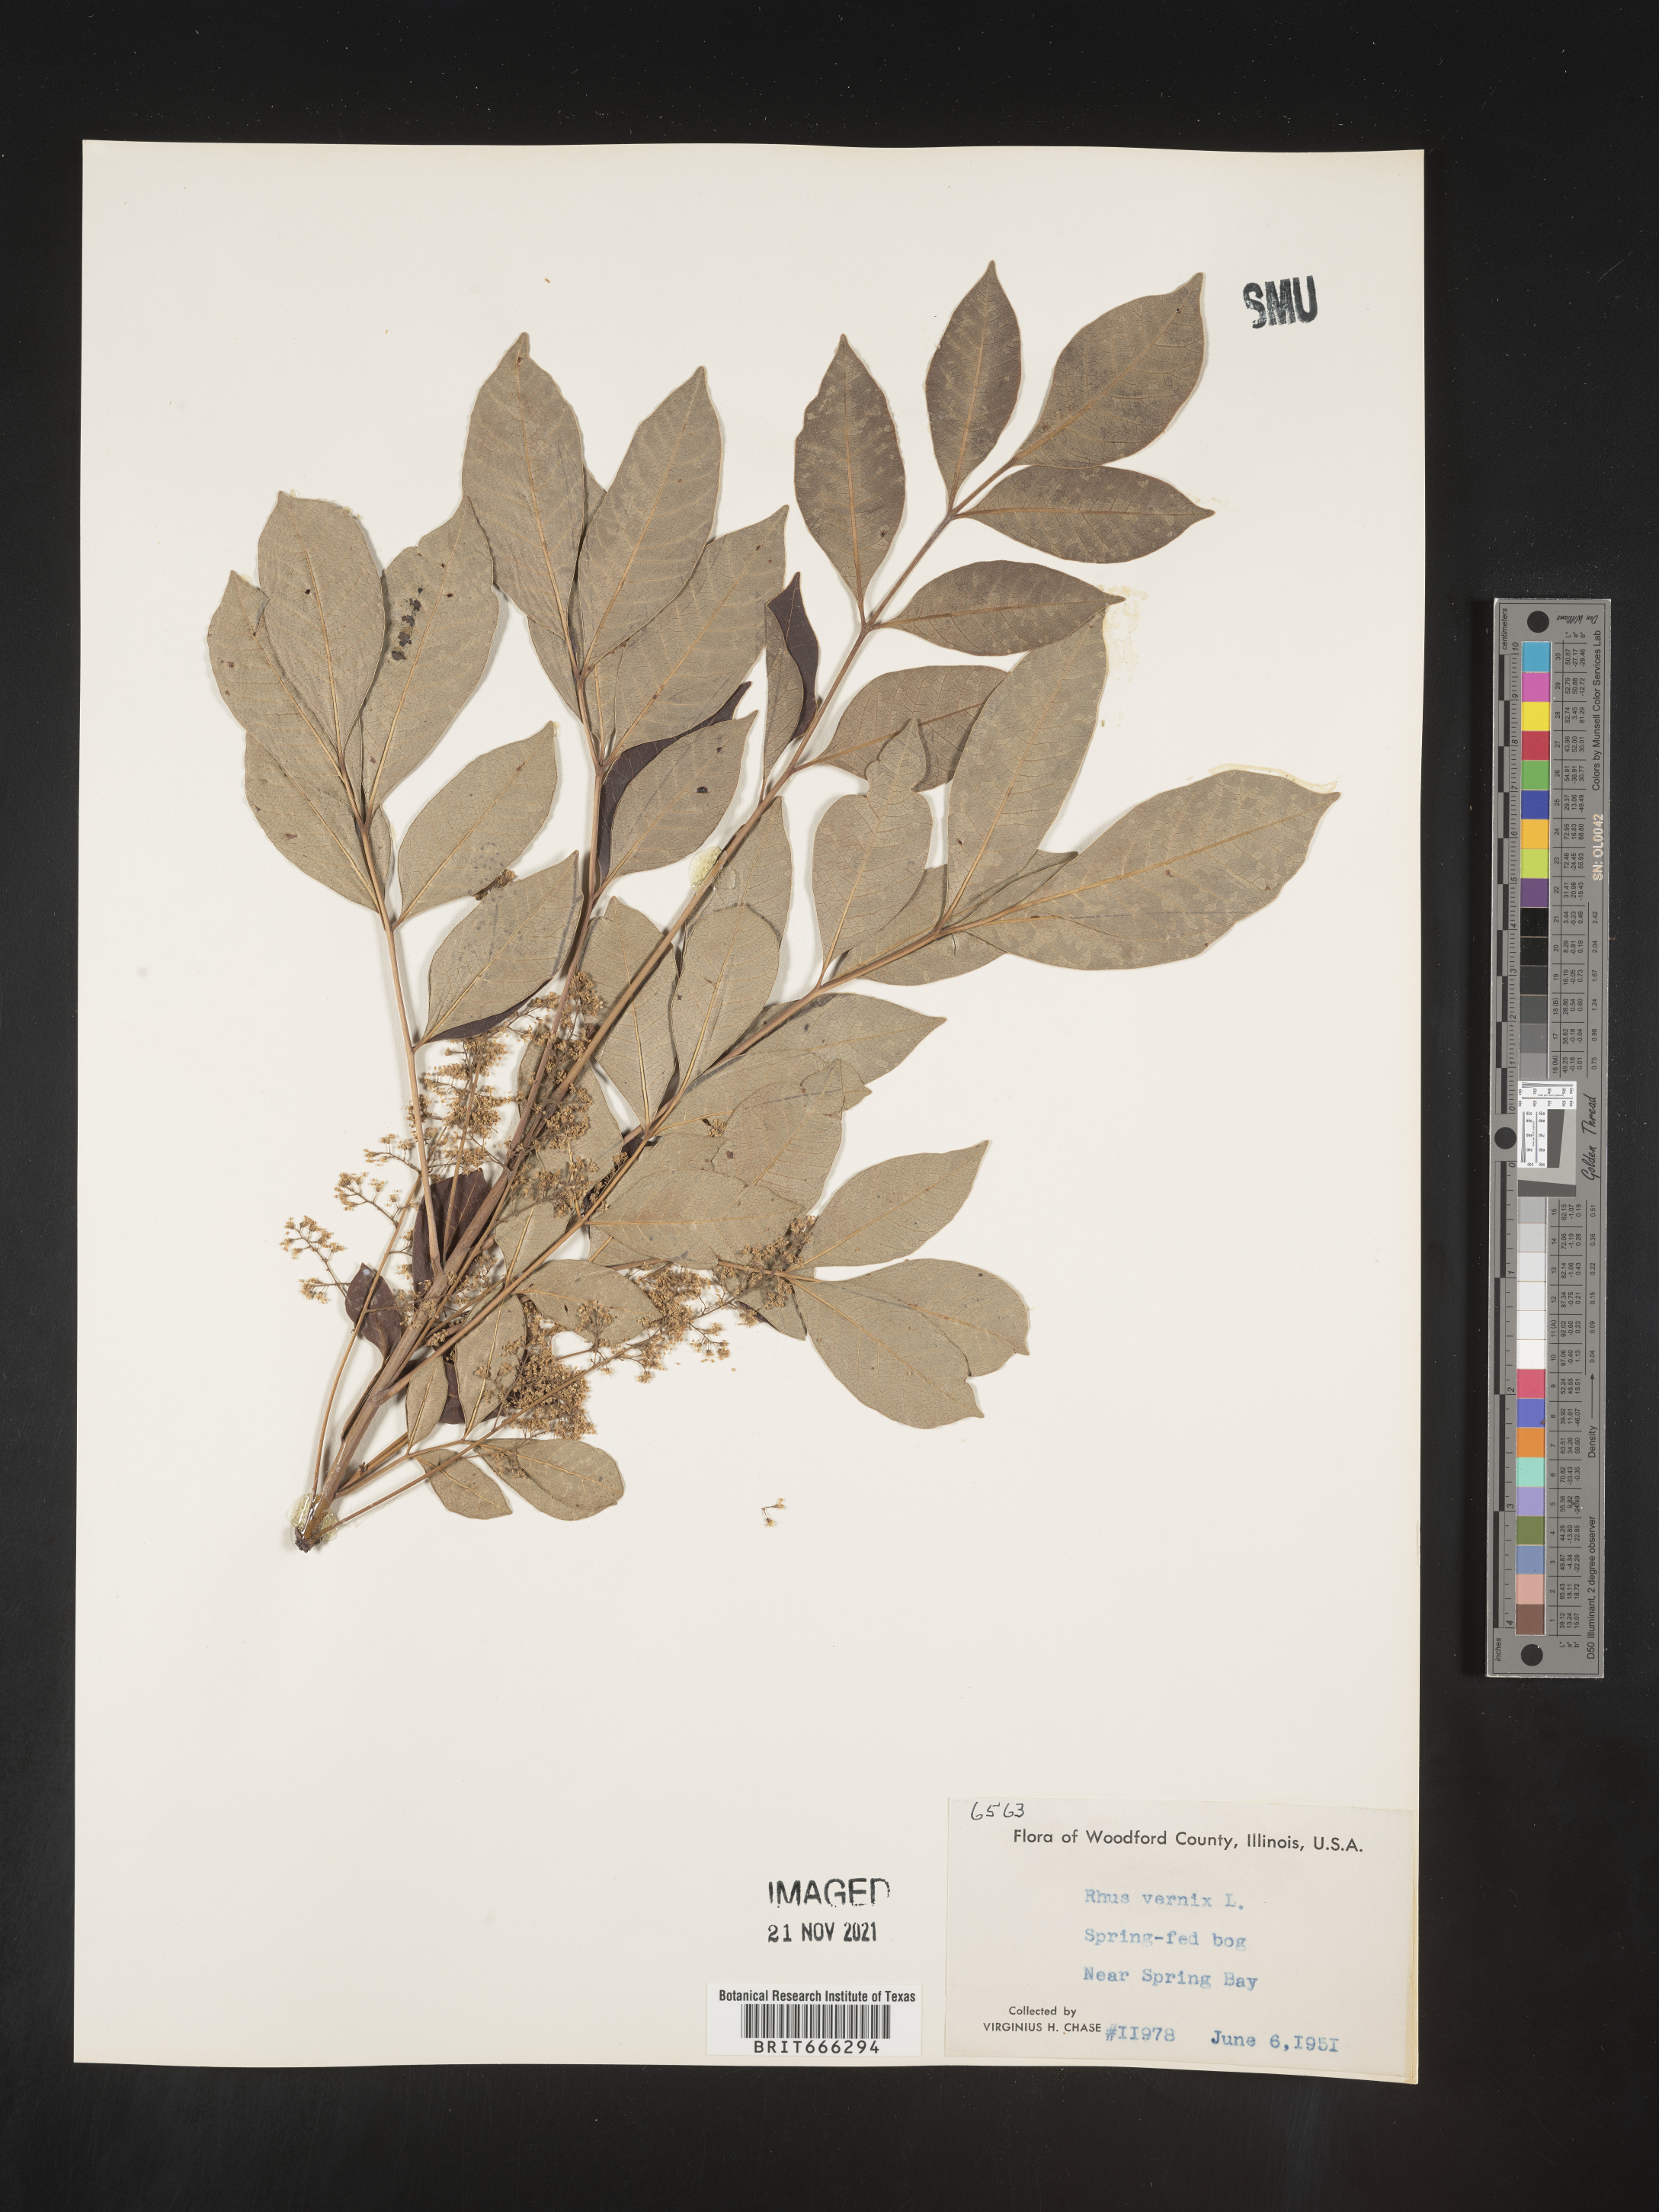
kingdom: Plantae
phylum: Tracheophyta
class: Magnoliopsida
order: Sapindales
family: Anacardiaceae
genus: Toxicodendron
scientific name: Toxicodendron vernix
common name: Poison sumac
